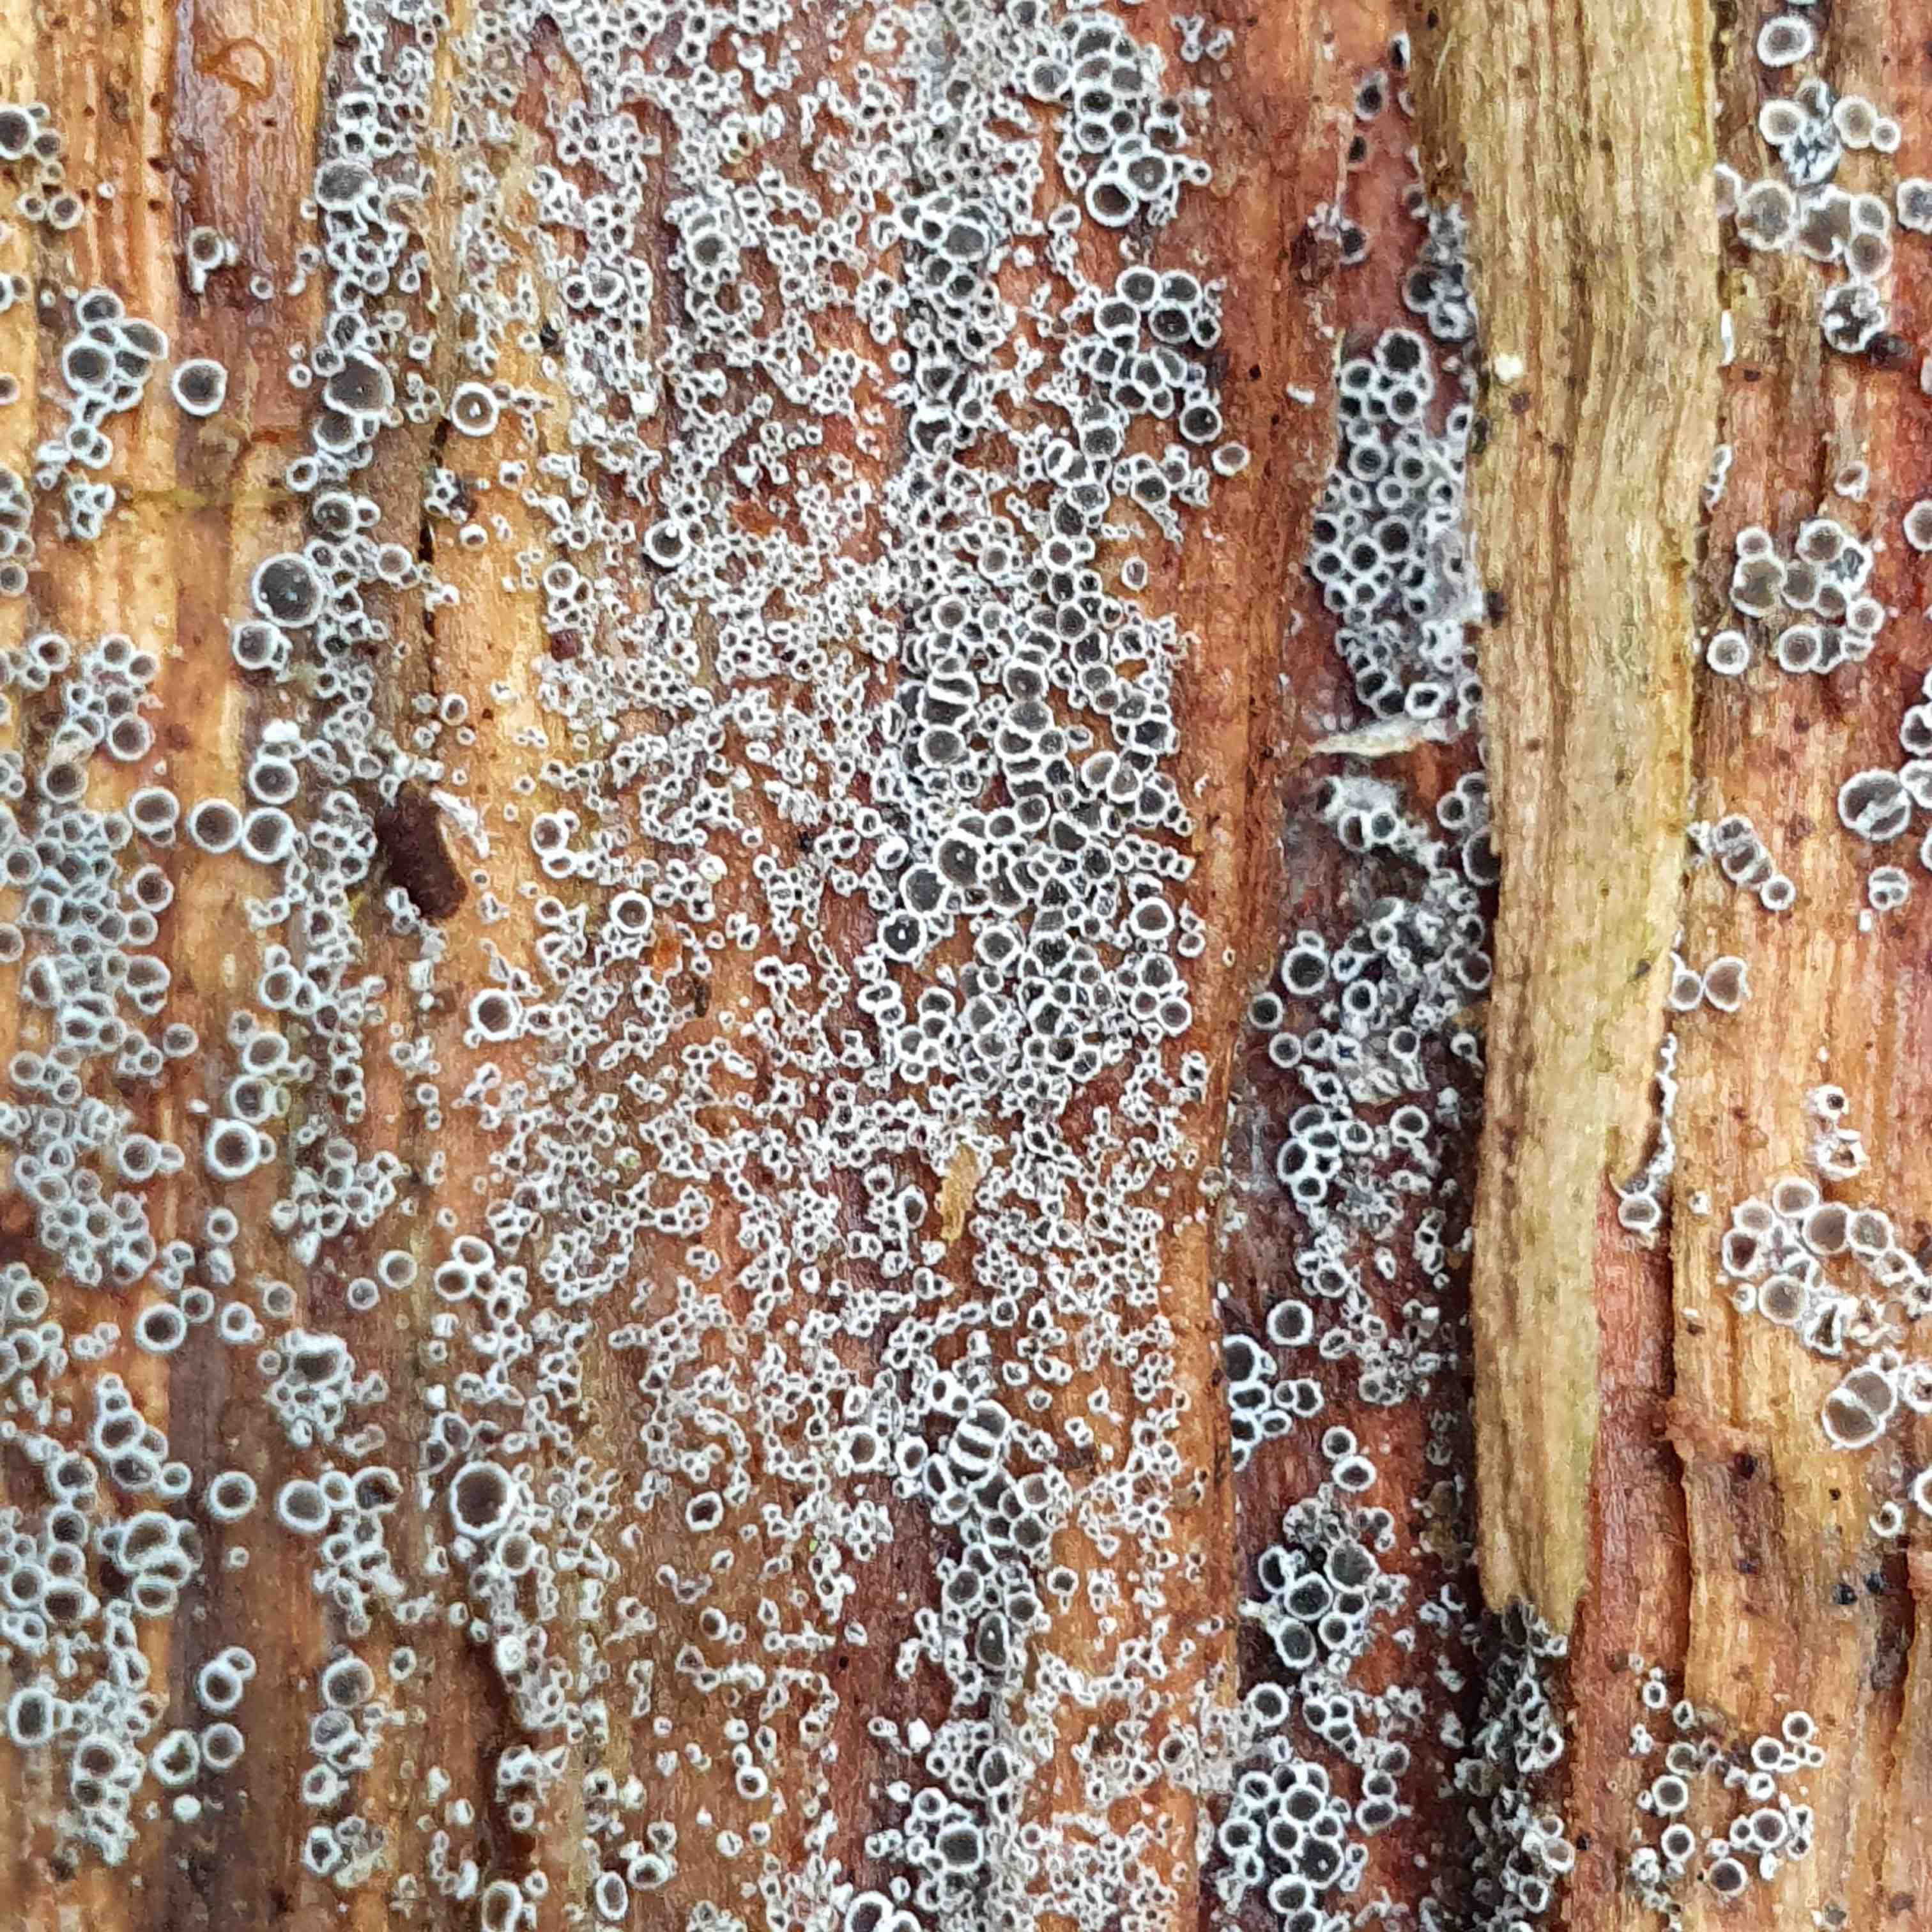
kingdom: Fungi
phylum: Ascomycota
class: Leotiomycetes
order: Helotiales
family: Arachnopezizaceae
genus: Eriopezia
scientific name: Eriopezia caesia
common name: ege-spindskive
